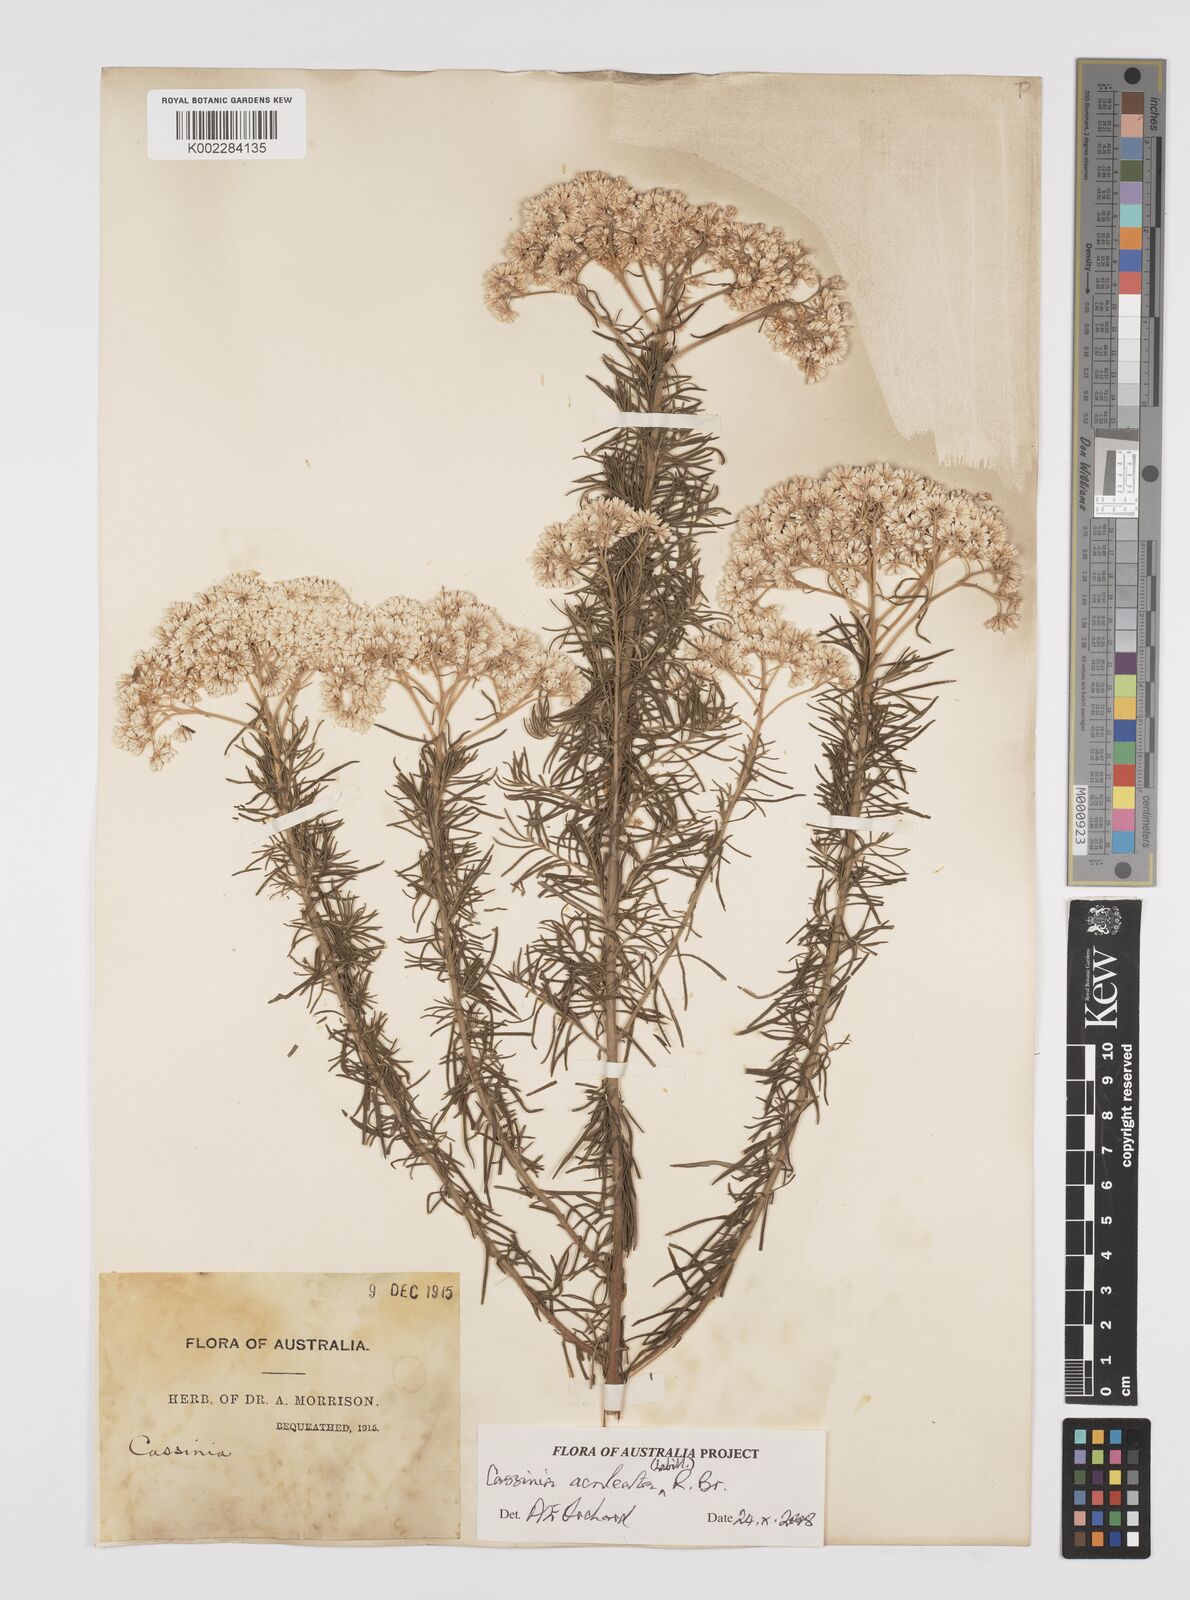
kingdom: Plantae
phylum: Tracheophyta
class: Magnoliopsida
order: Asterales
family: Asteraceae
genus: Cassinia
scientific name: Cassinia aculeata
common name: Australian tauhinu
